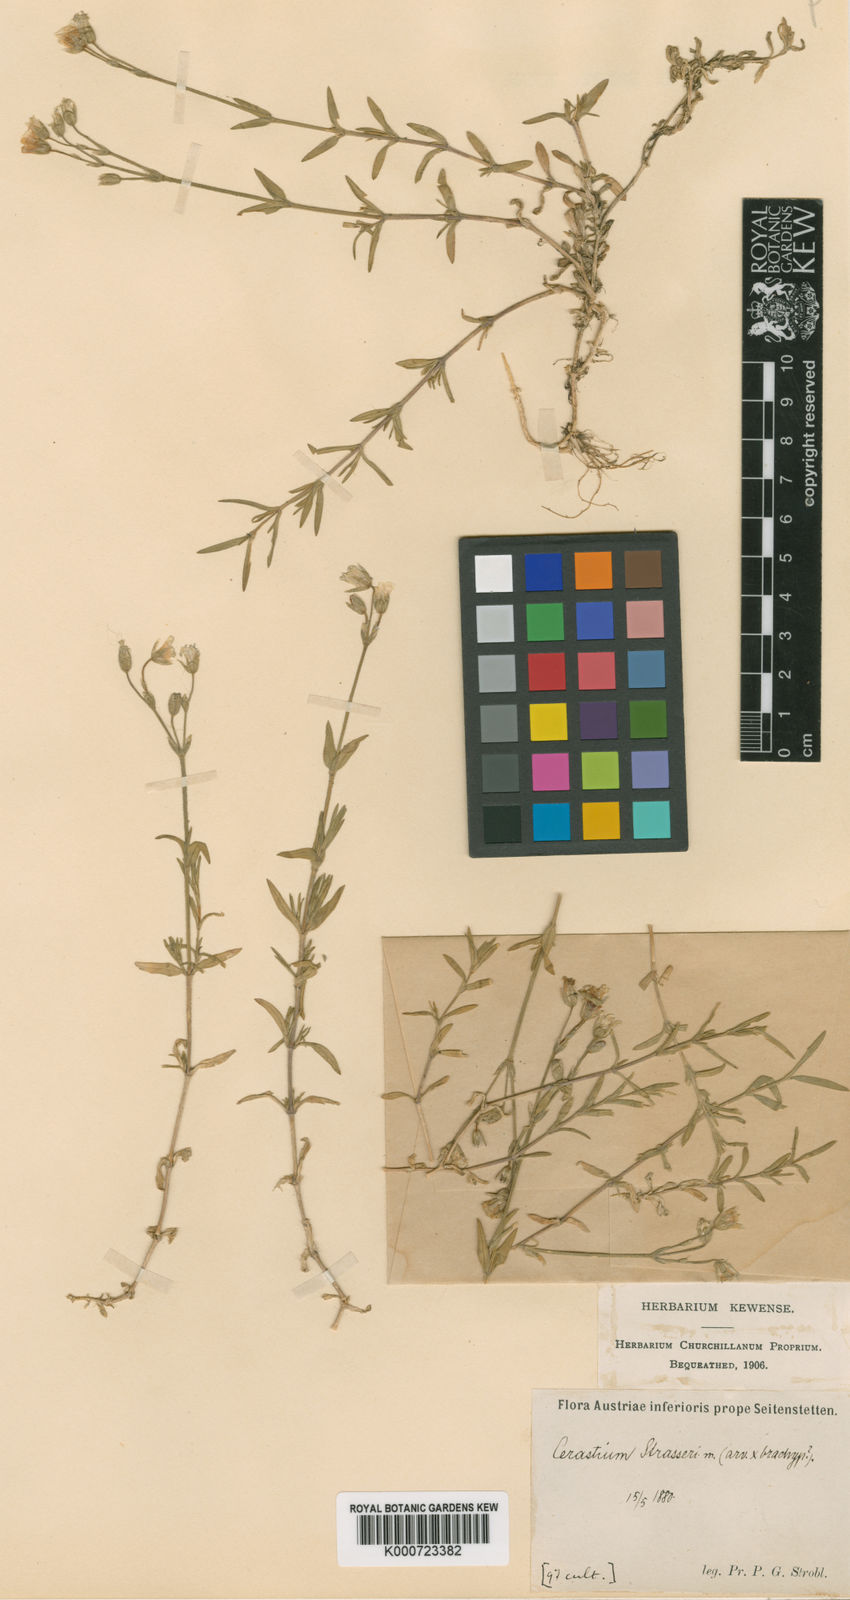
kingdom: Plantae
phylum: Tracheophyta
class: Magnoliopsida
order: Caryophyllales
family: Caryophyllaceae
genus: Cerastium
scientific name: Cerastium elongatum
